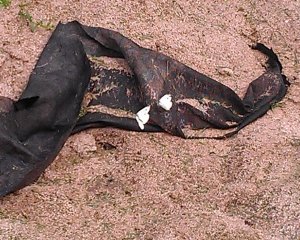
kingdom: Animalia
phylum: Arthropoda
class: Insecta
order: Lepidoptera
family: Pieridae
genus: Pieris
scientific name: Pieris rapae
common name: Cabbage White
